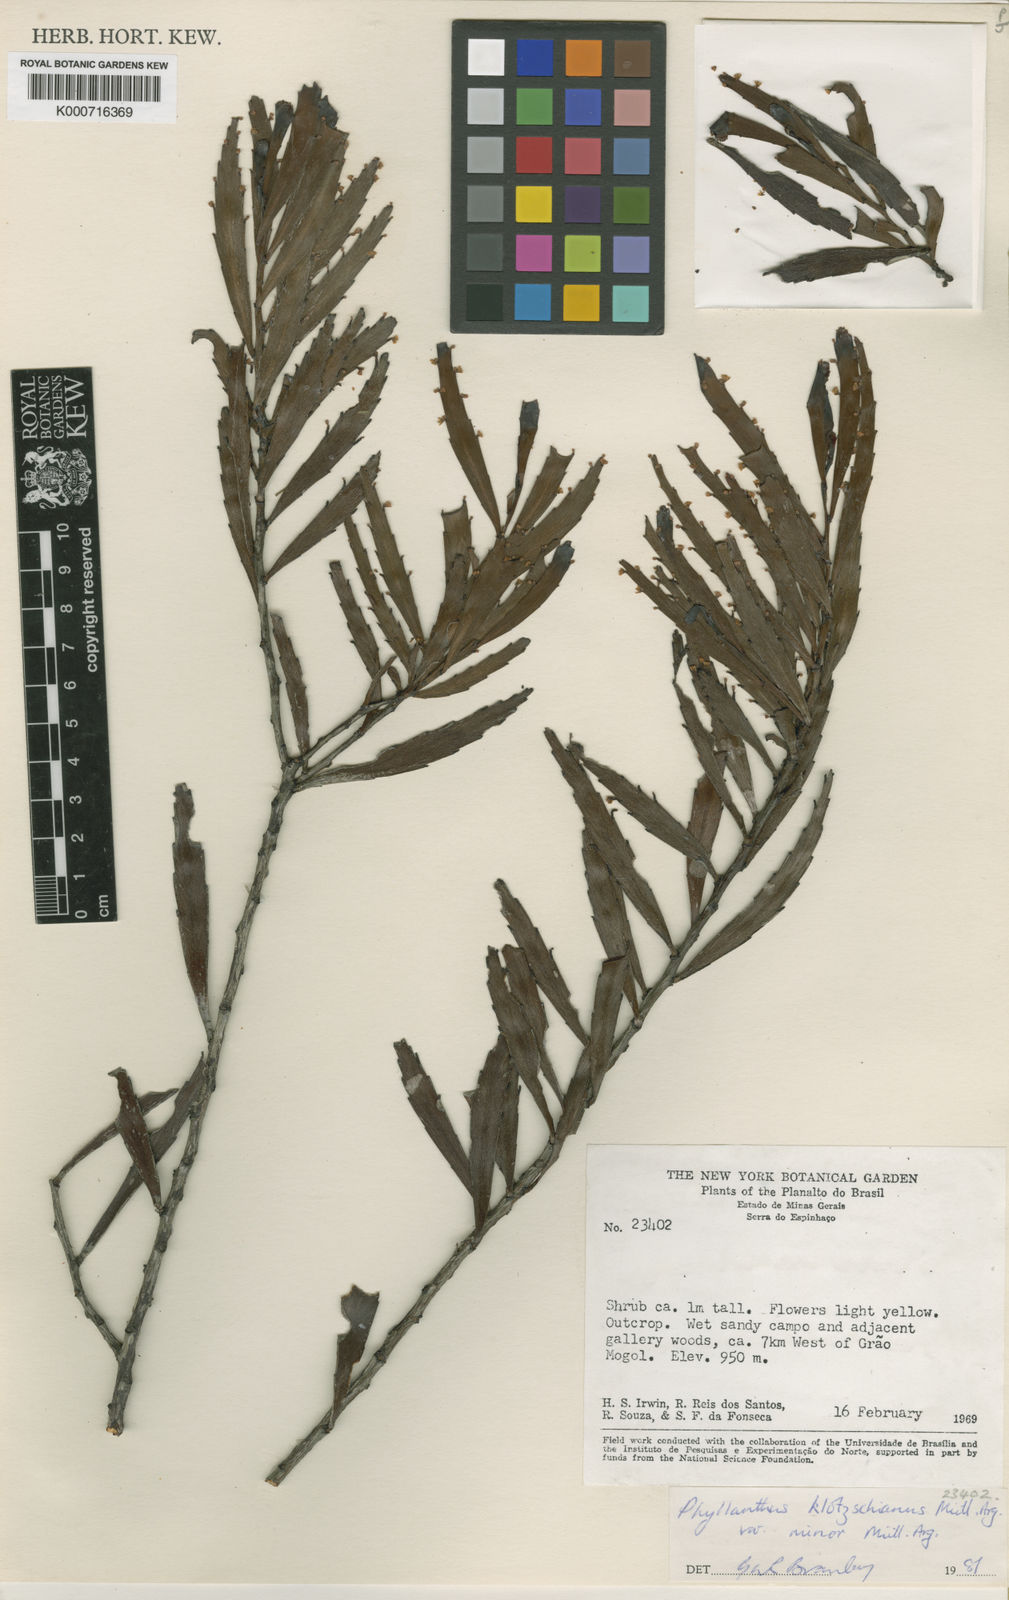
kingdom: Plantae
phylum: Tracheophyta
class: Magnoliopsida
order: Malpighiales
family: Phyllanthaceae
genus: Phyllanthus
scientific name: Phyllanthus
